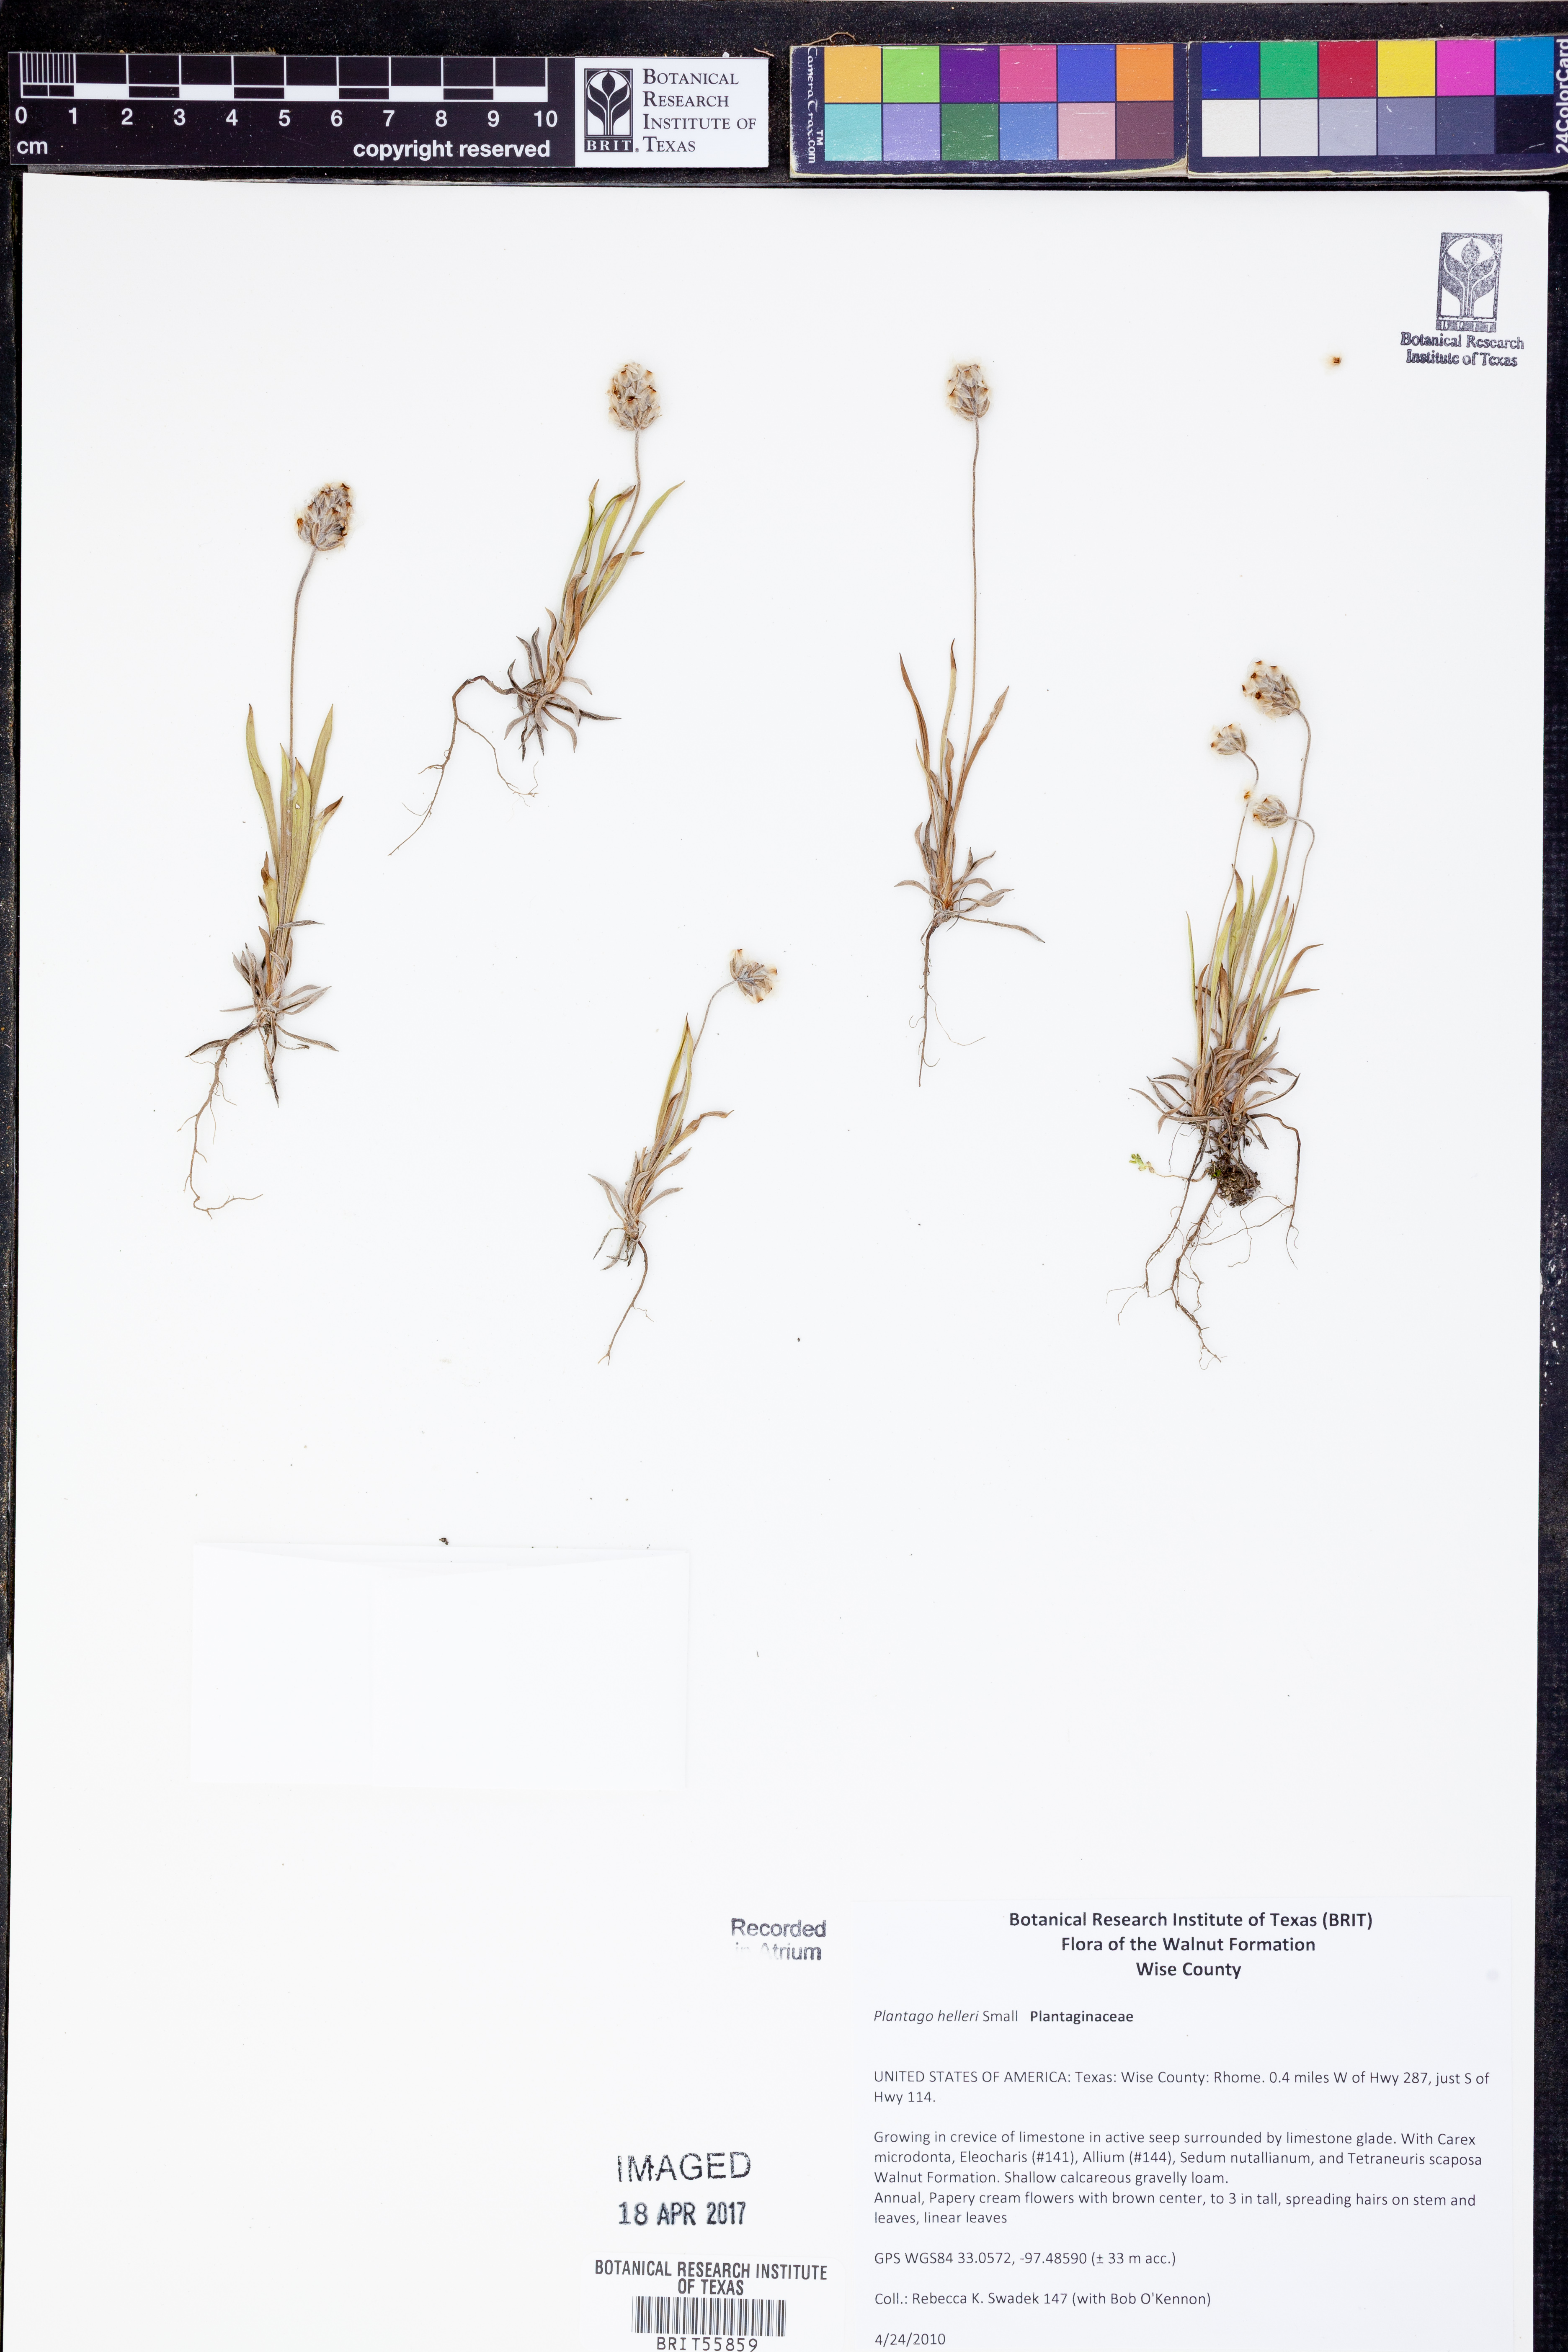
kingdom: Plantae
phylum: Tracheophyta
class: Magnoliopsida
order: Lamiales
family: Plantaginaceae
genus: Plantago
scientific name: Plantago helleri
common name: Heller's plantain
